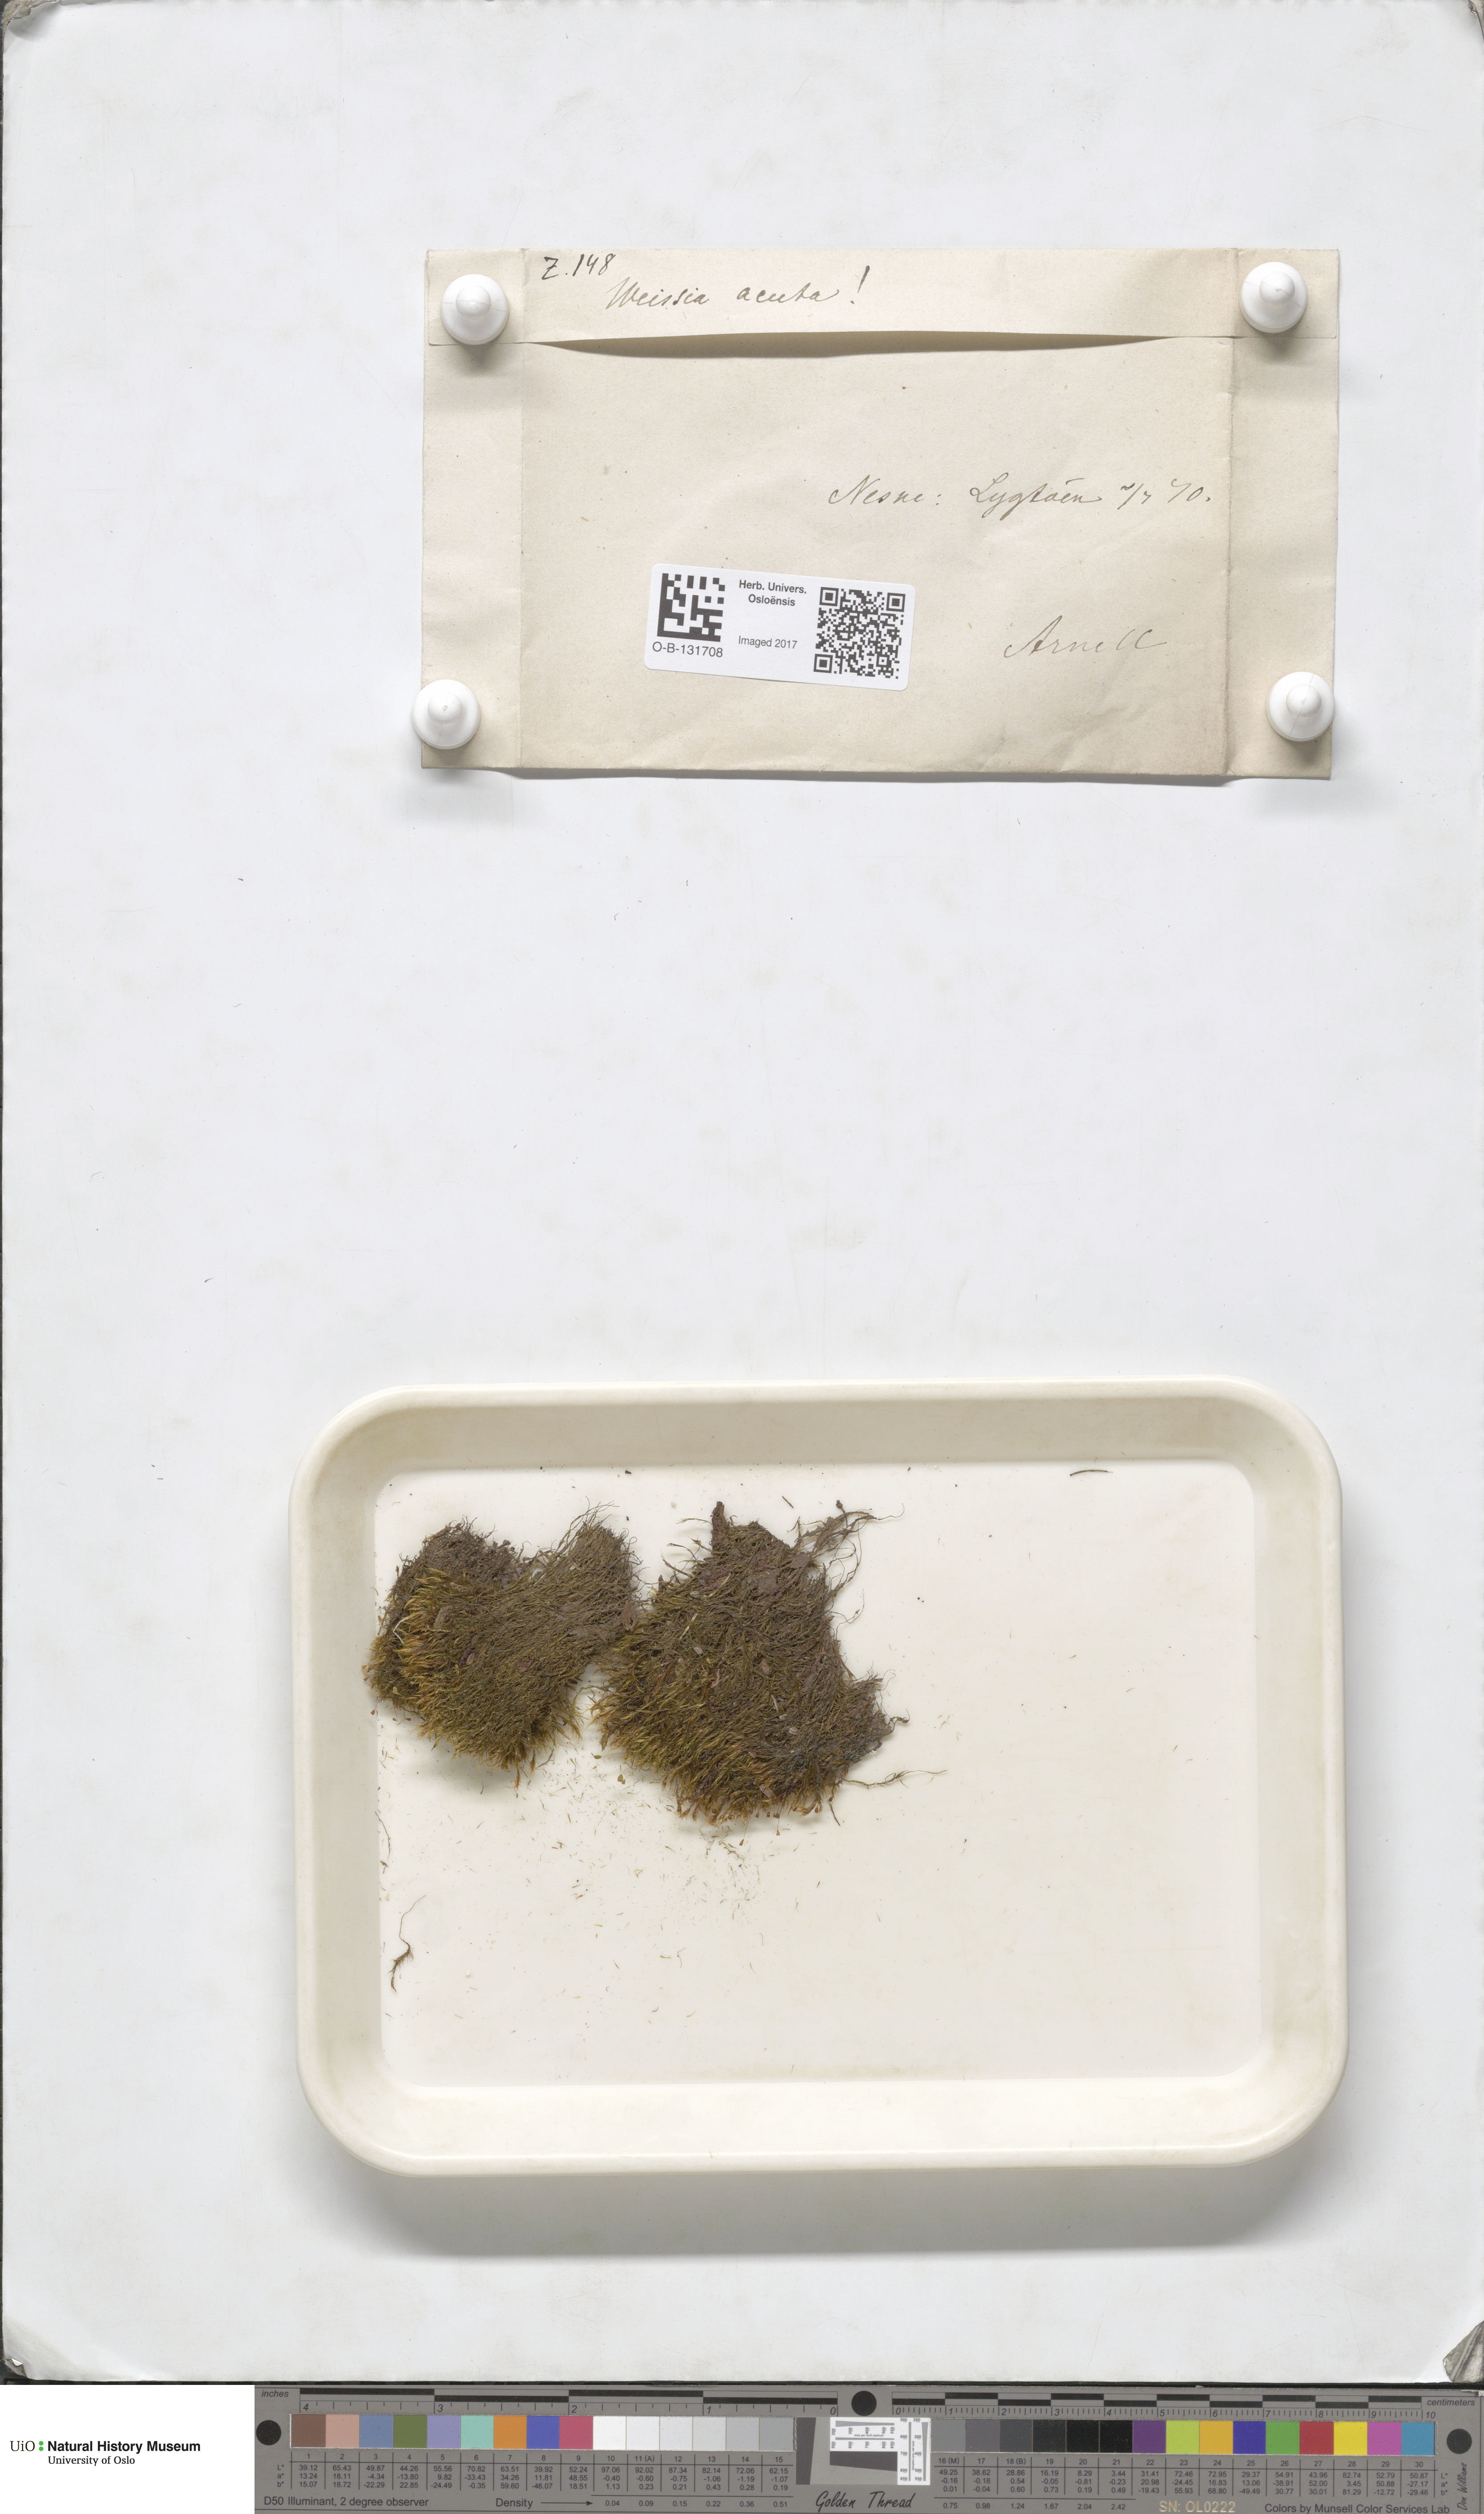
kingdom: Plantae
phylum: Bryophyta
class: Bryopsida
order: Grimmiales
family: Seligeriaceae
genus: Blindia
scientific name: Blindia acuta
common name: Sharp-leaved blind's moss
